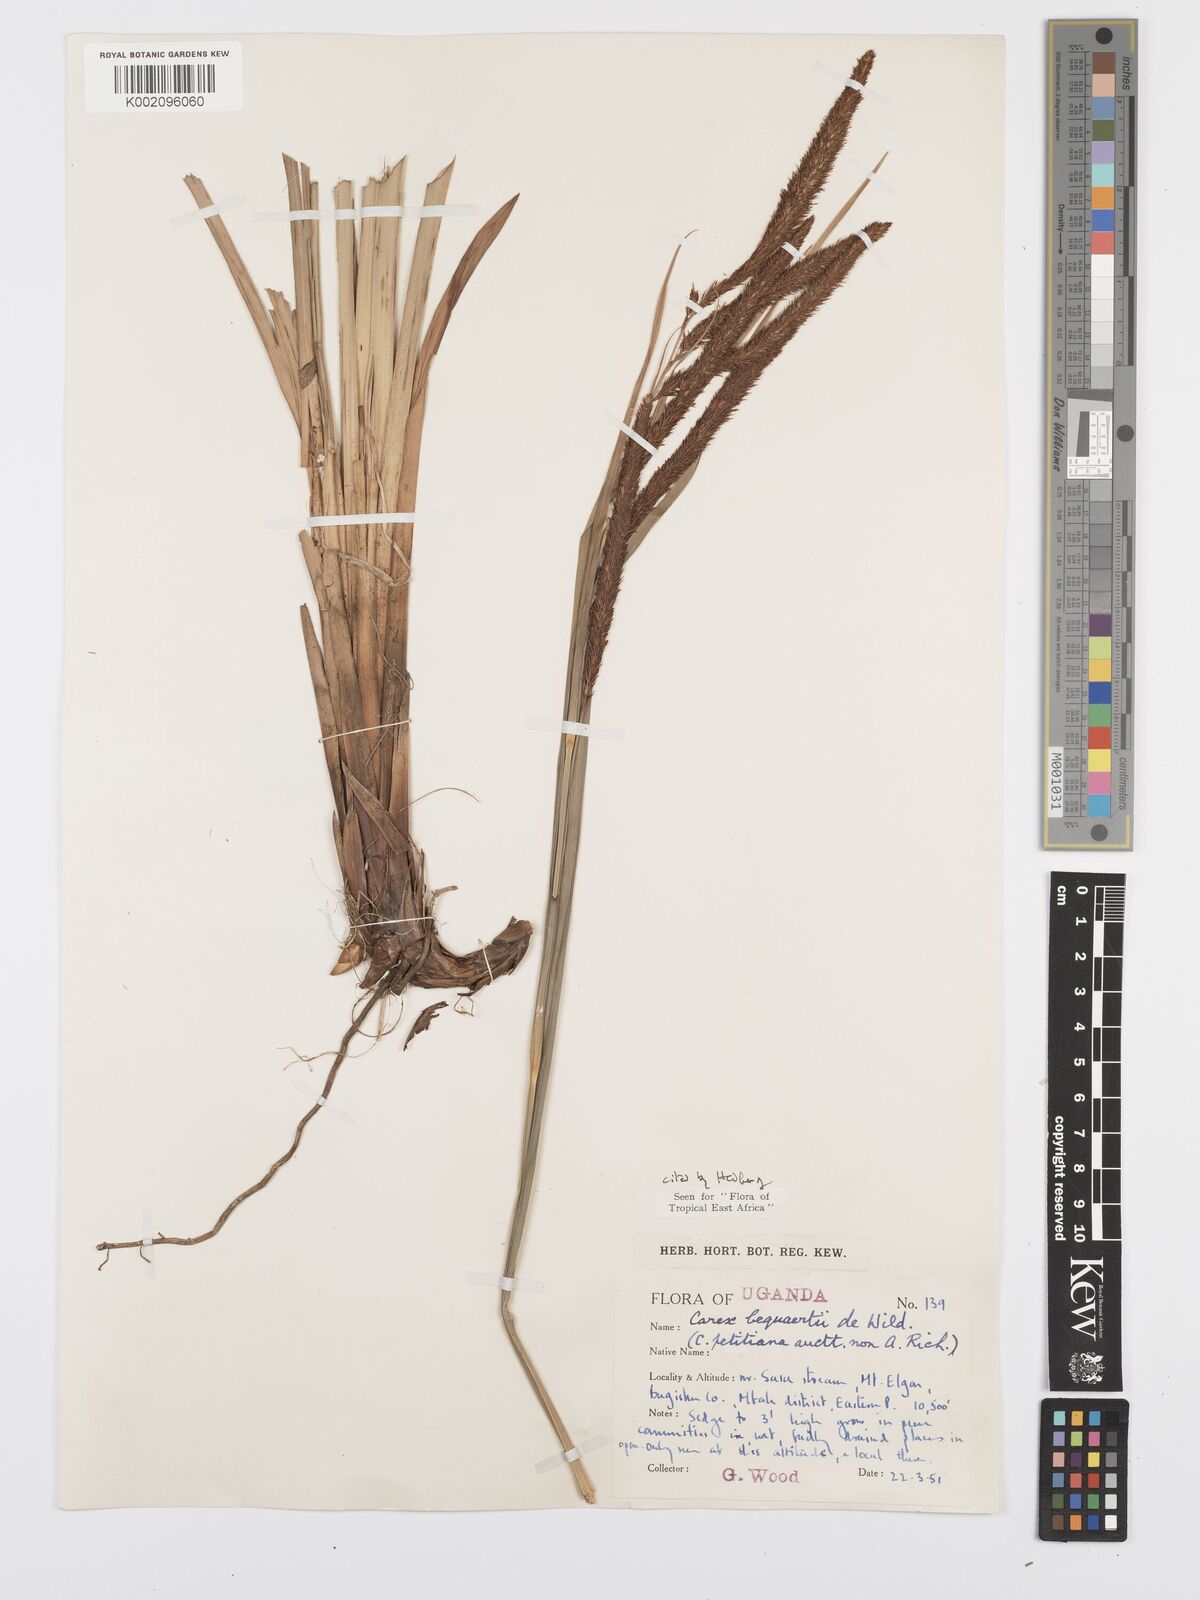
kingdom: Plantae
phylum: Tracheophyta
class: Liliopsida
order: Poales
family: Cyperaceae
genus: Carex
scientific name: Carex bequaertii
